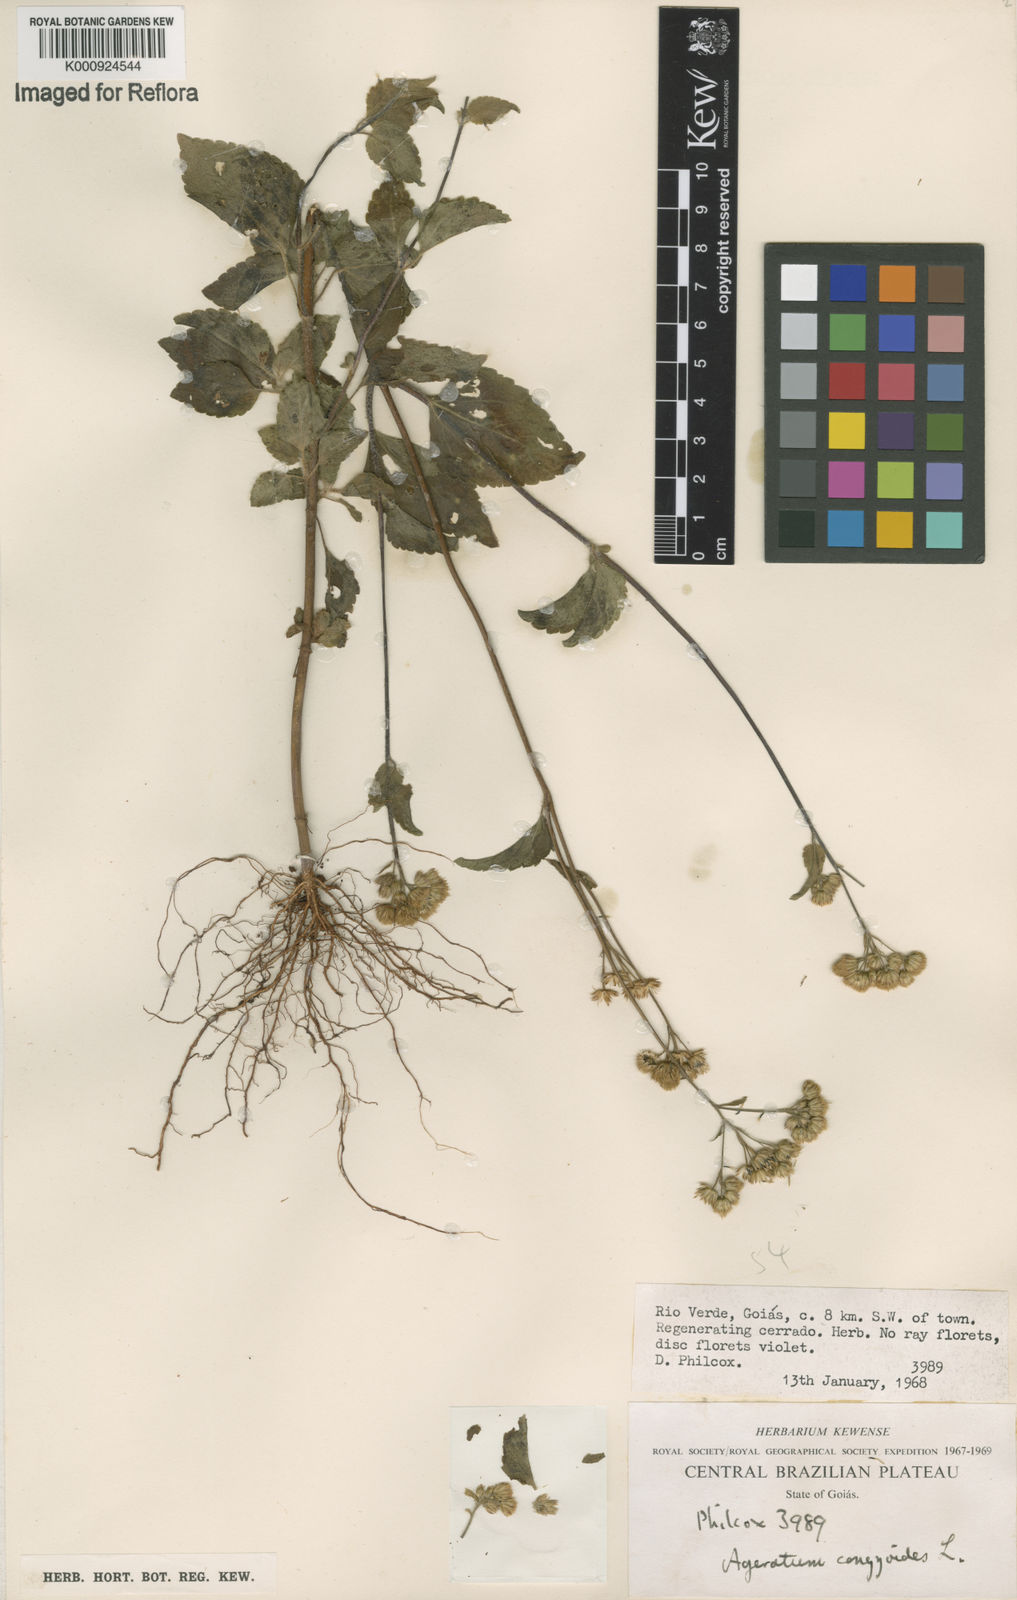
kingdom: Plantae
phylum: Tracheophyta
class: Magnoliopsida
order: Asterales
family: Asteraceae
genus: Ageratum
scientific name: Ageratum conyzoides
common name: Tropical whiteweed
